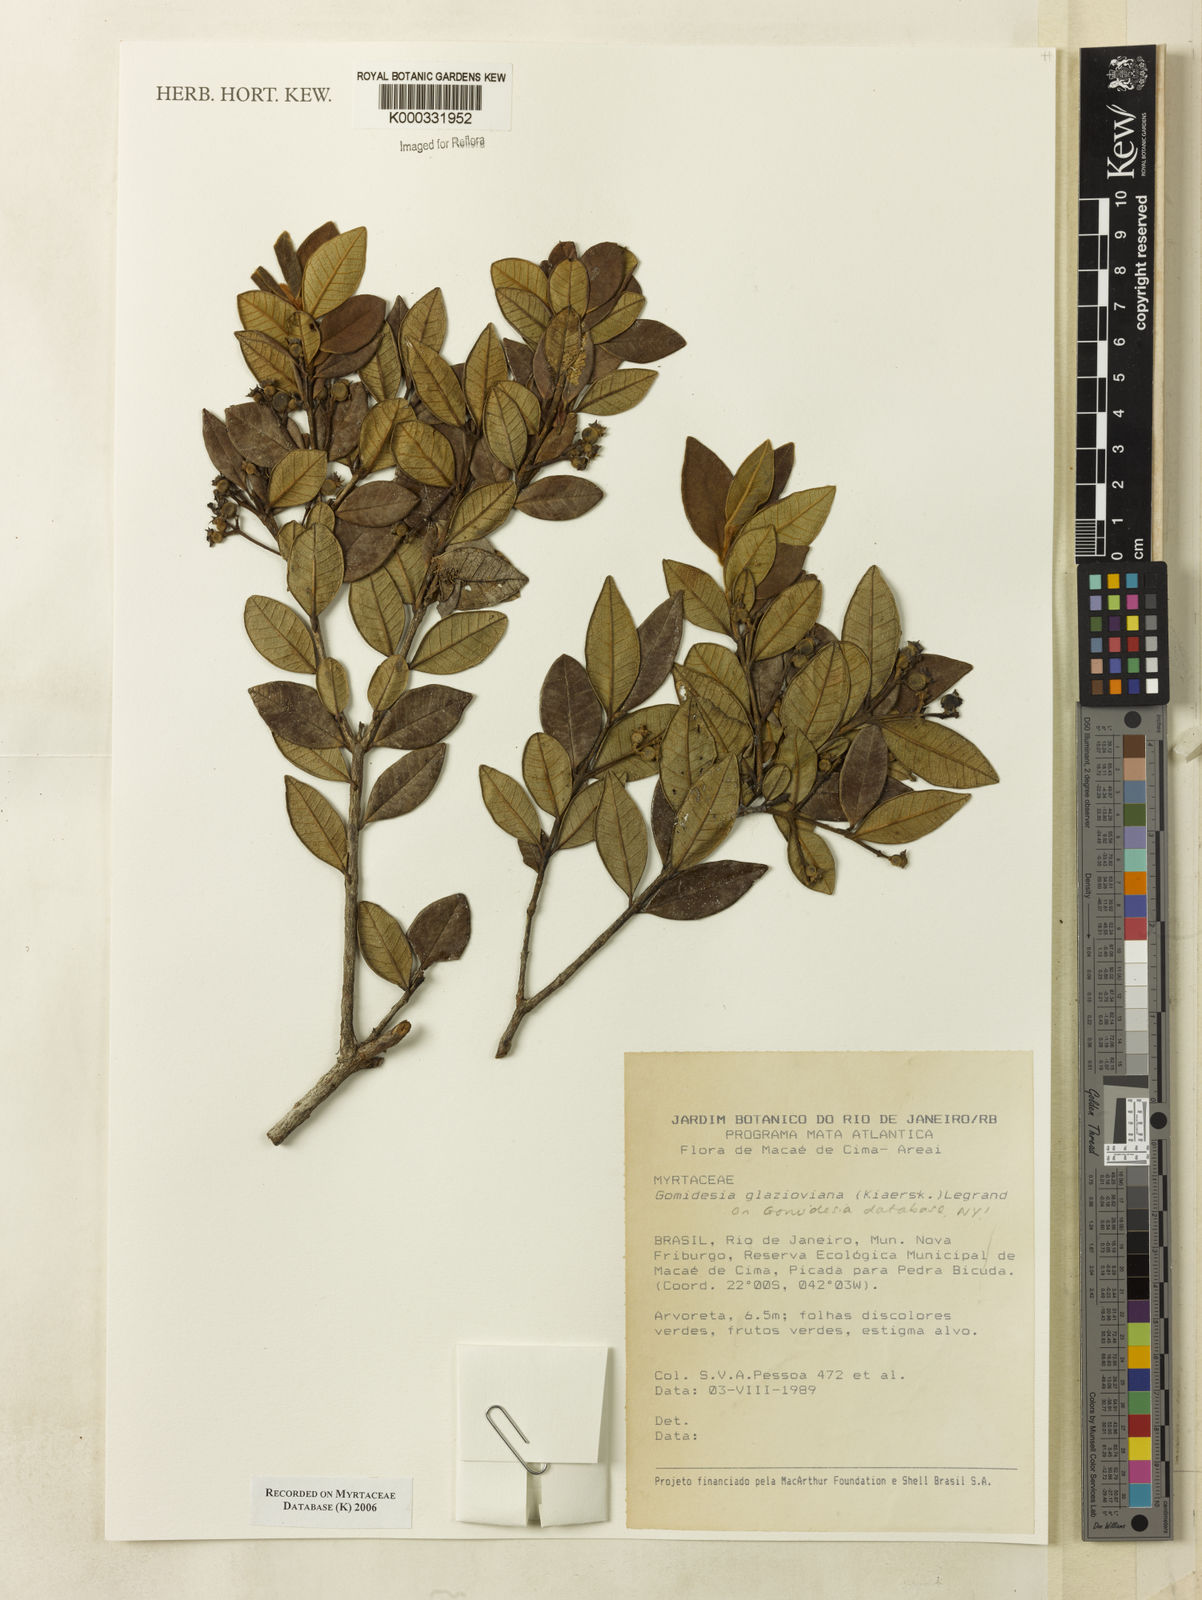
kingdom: Plantae
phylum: Tracheophyta
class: Magnoliopsida
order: Myrtales
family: Myrtaceae
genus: Myrcia
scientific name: Myrcia glazioviana
